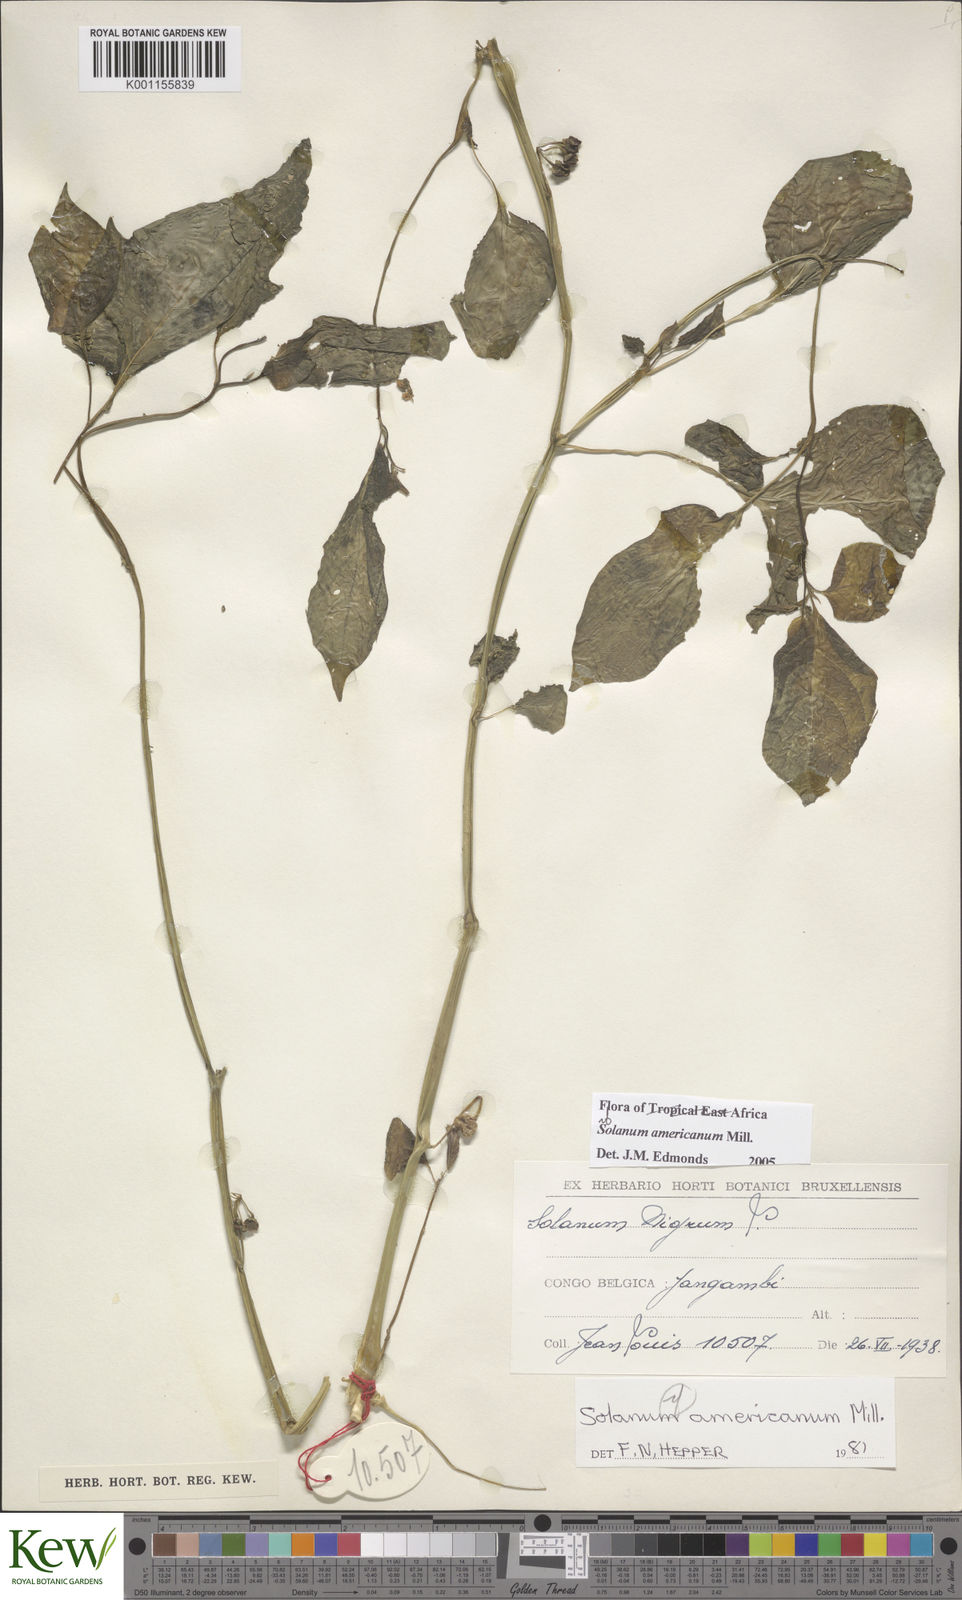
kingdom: Plantae
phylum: Tracheophyta
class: Magnoliopsida
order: Solanales
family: Solanaceae
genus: Solanum
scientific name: Solanum scabrum
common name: Garden-huckleberry
